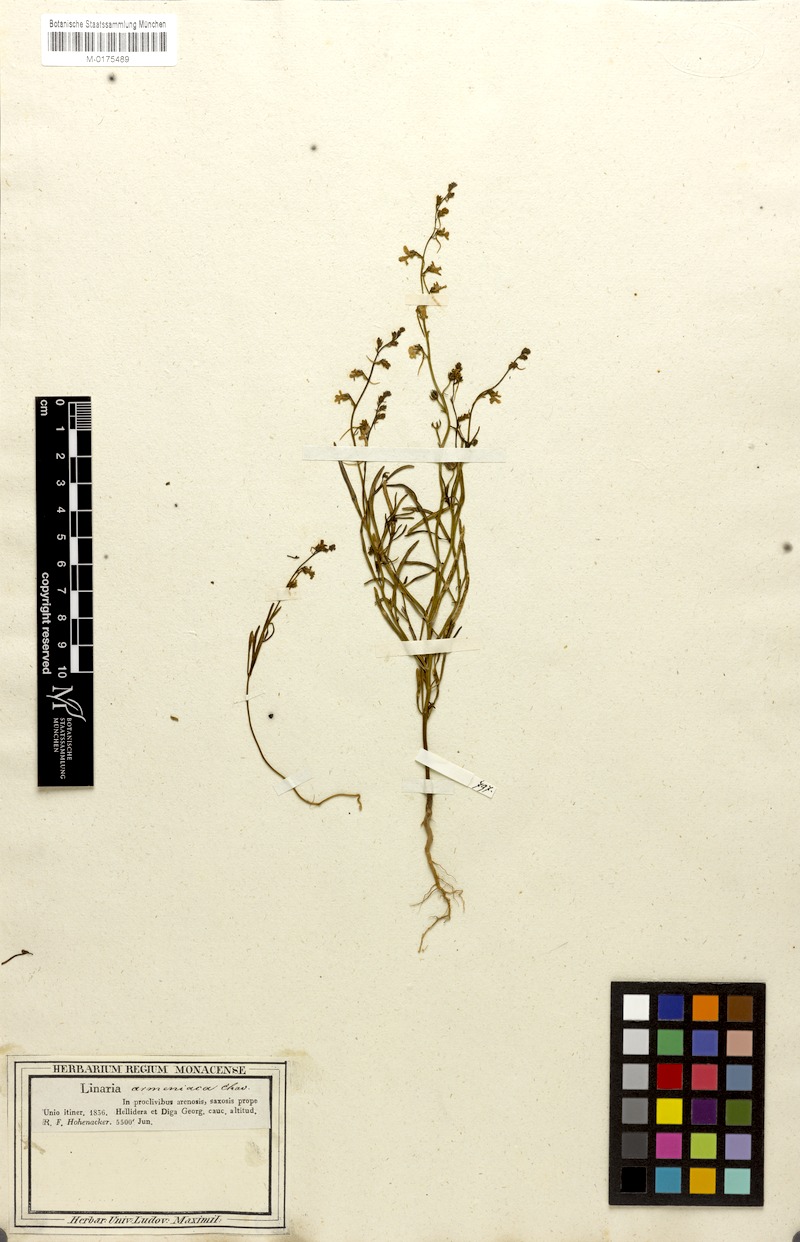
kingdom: Plantae
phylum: Tracheophyta
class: Magnoliopsida
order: Lamiales
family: Plantaginaceae
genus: Linaria
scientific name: Linaria armeniaca
